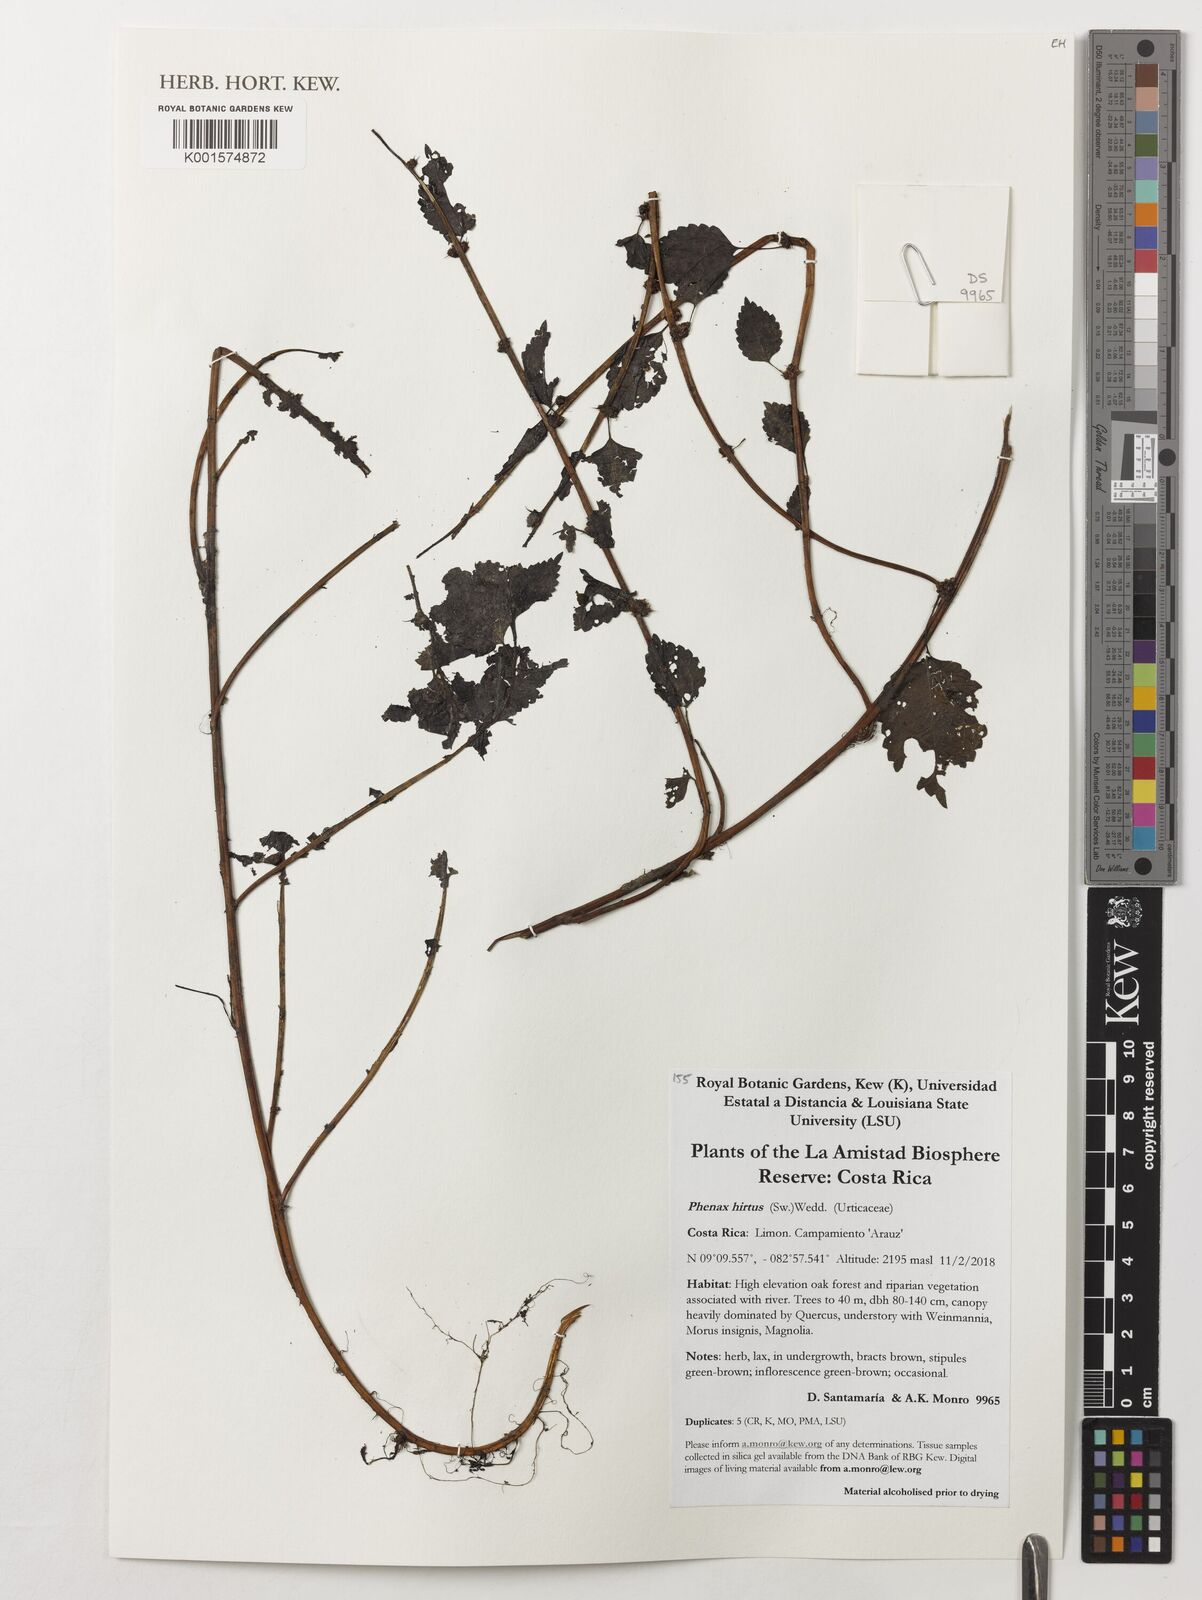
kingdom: Plantae
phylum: Tracheophyta
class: Magnoliopsida
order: Rosales
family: Urticaceae
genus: Phenax
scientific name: Phenax hirtus
